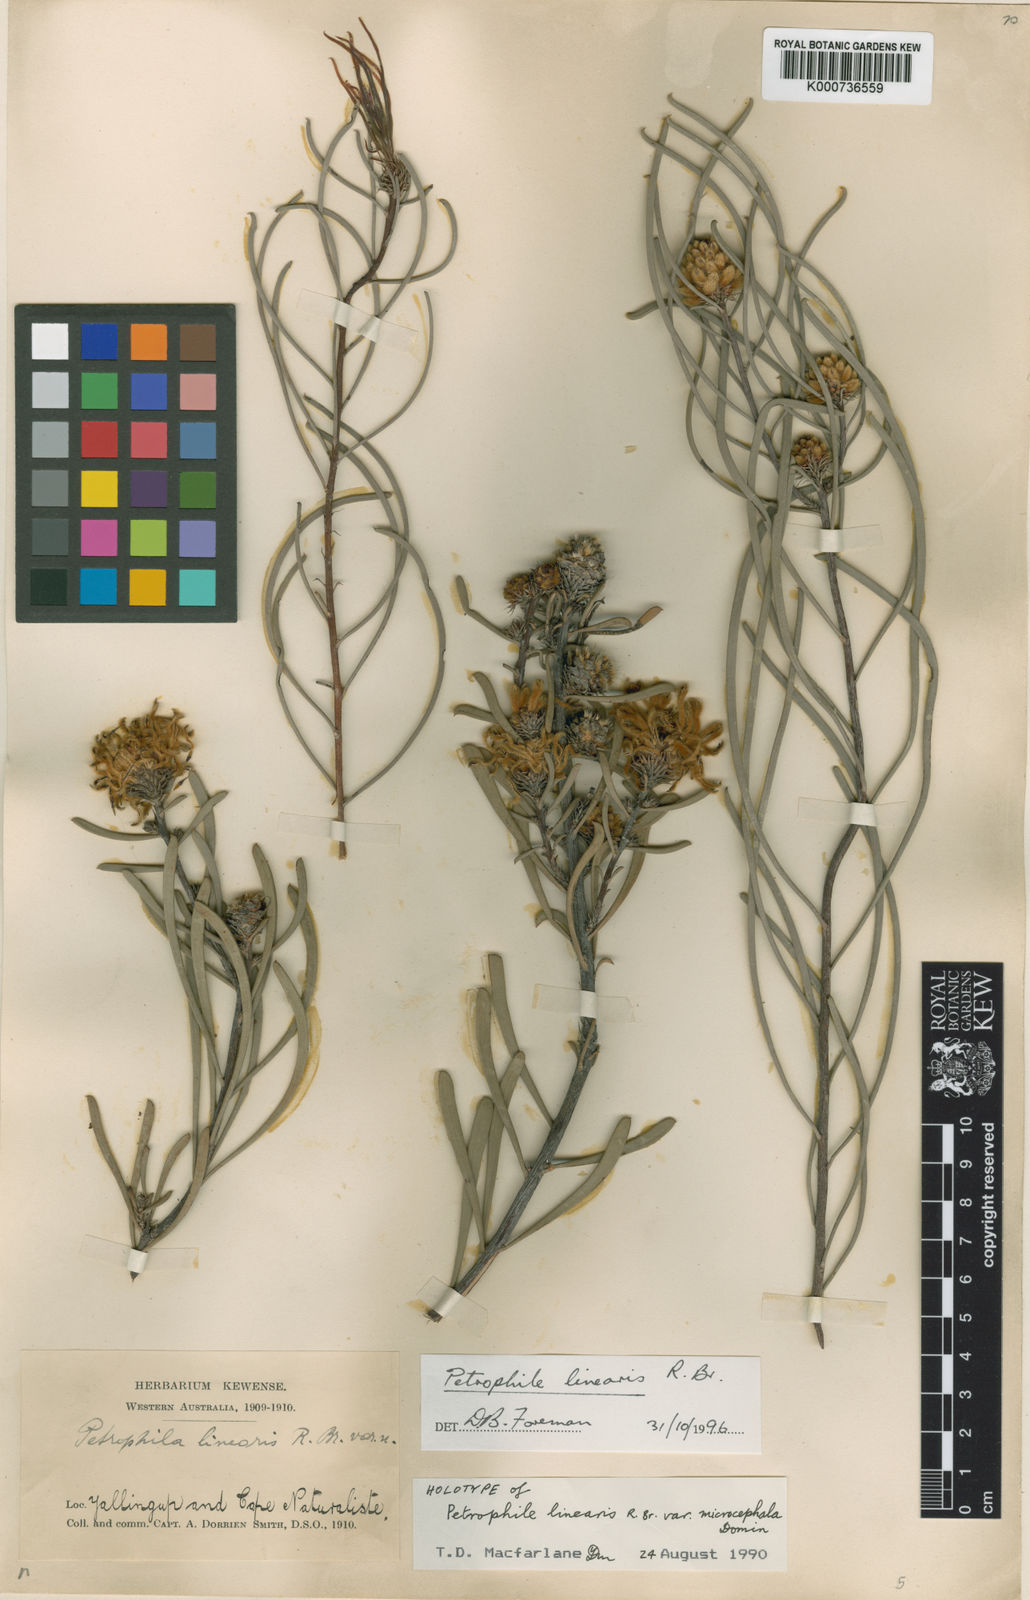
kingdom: Plantae
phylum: Tracheophyta
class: Magnoliopsida
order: Proteales
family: Proteaceae
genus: Petrophile
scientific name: Petrophile linearis
